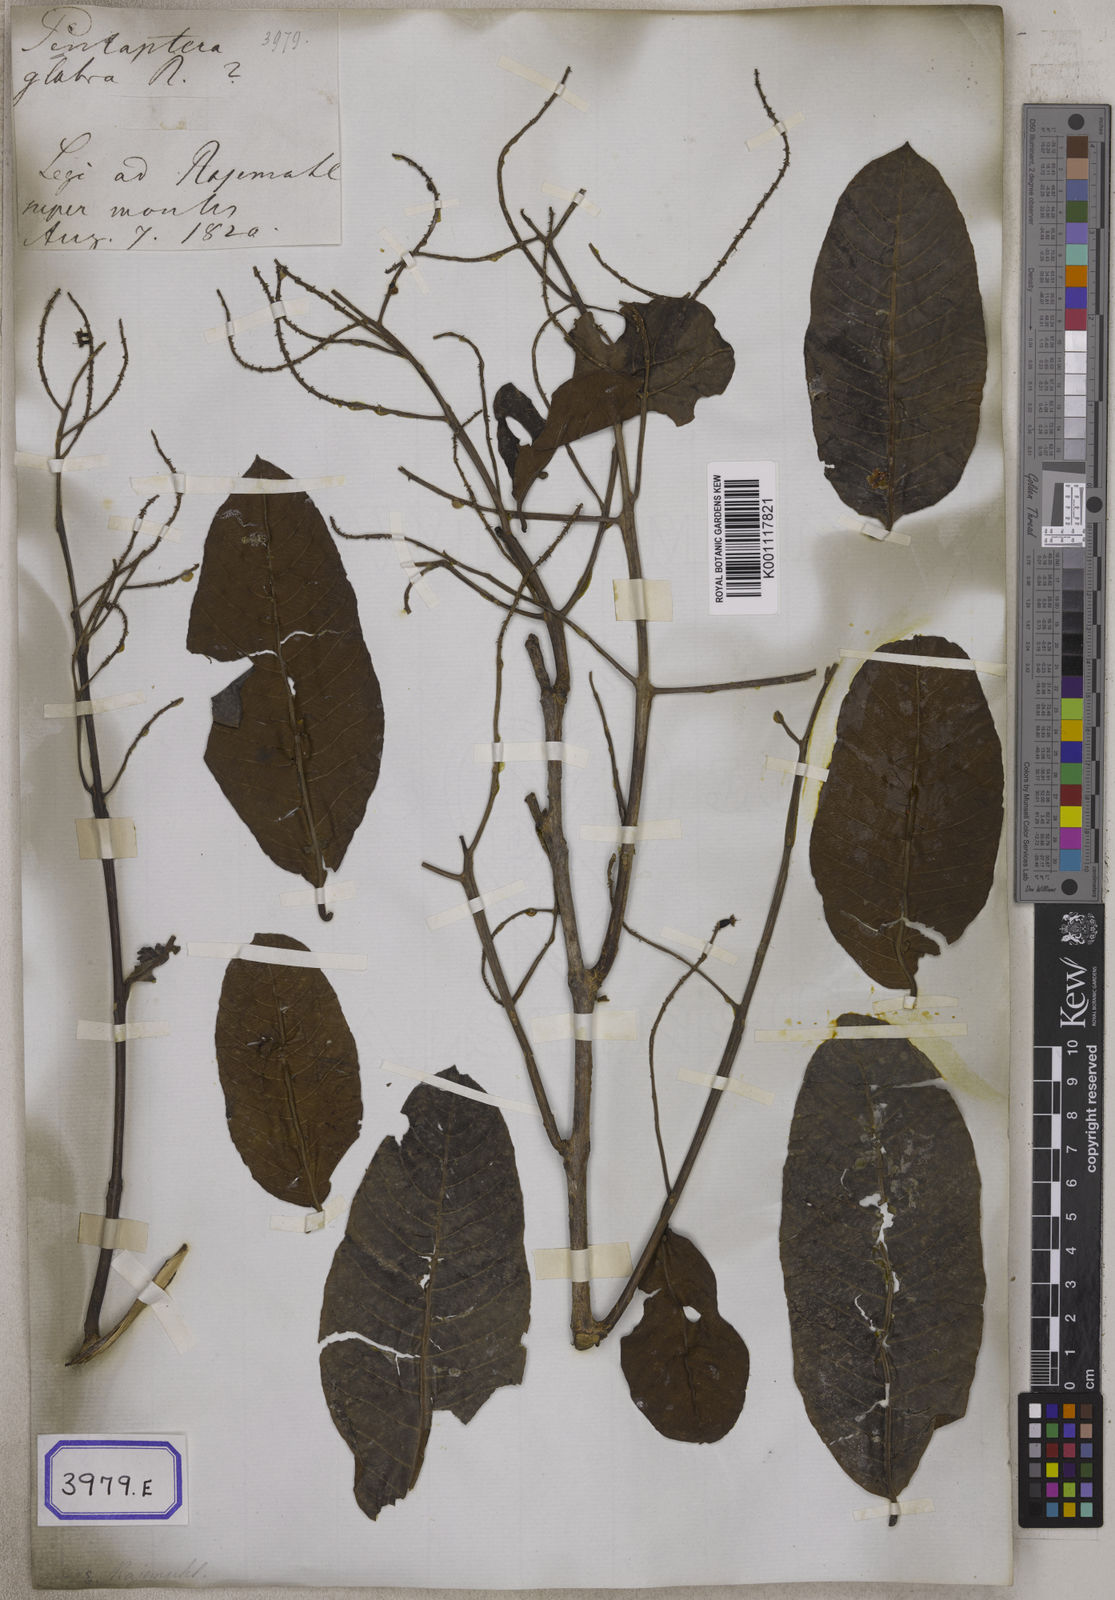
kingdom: Plantae
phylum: Tracheophyta
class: Magnoliopsida
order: Myrtales
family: Combretaceae
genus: Terminalia
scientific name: Terminalia arjuna
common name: Arjun
